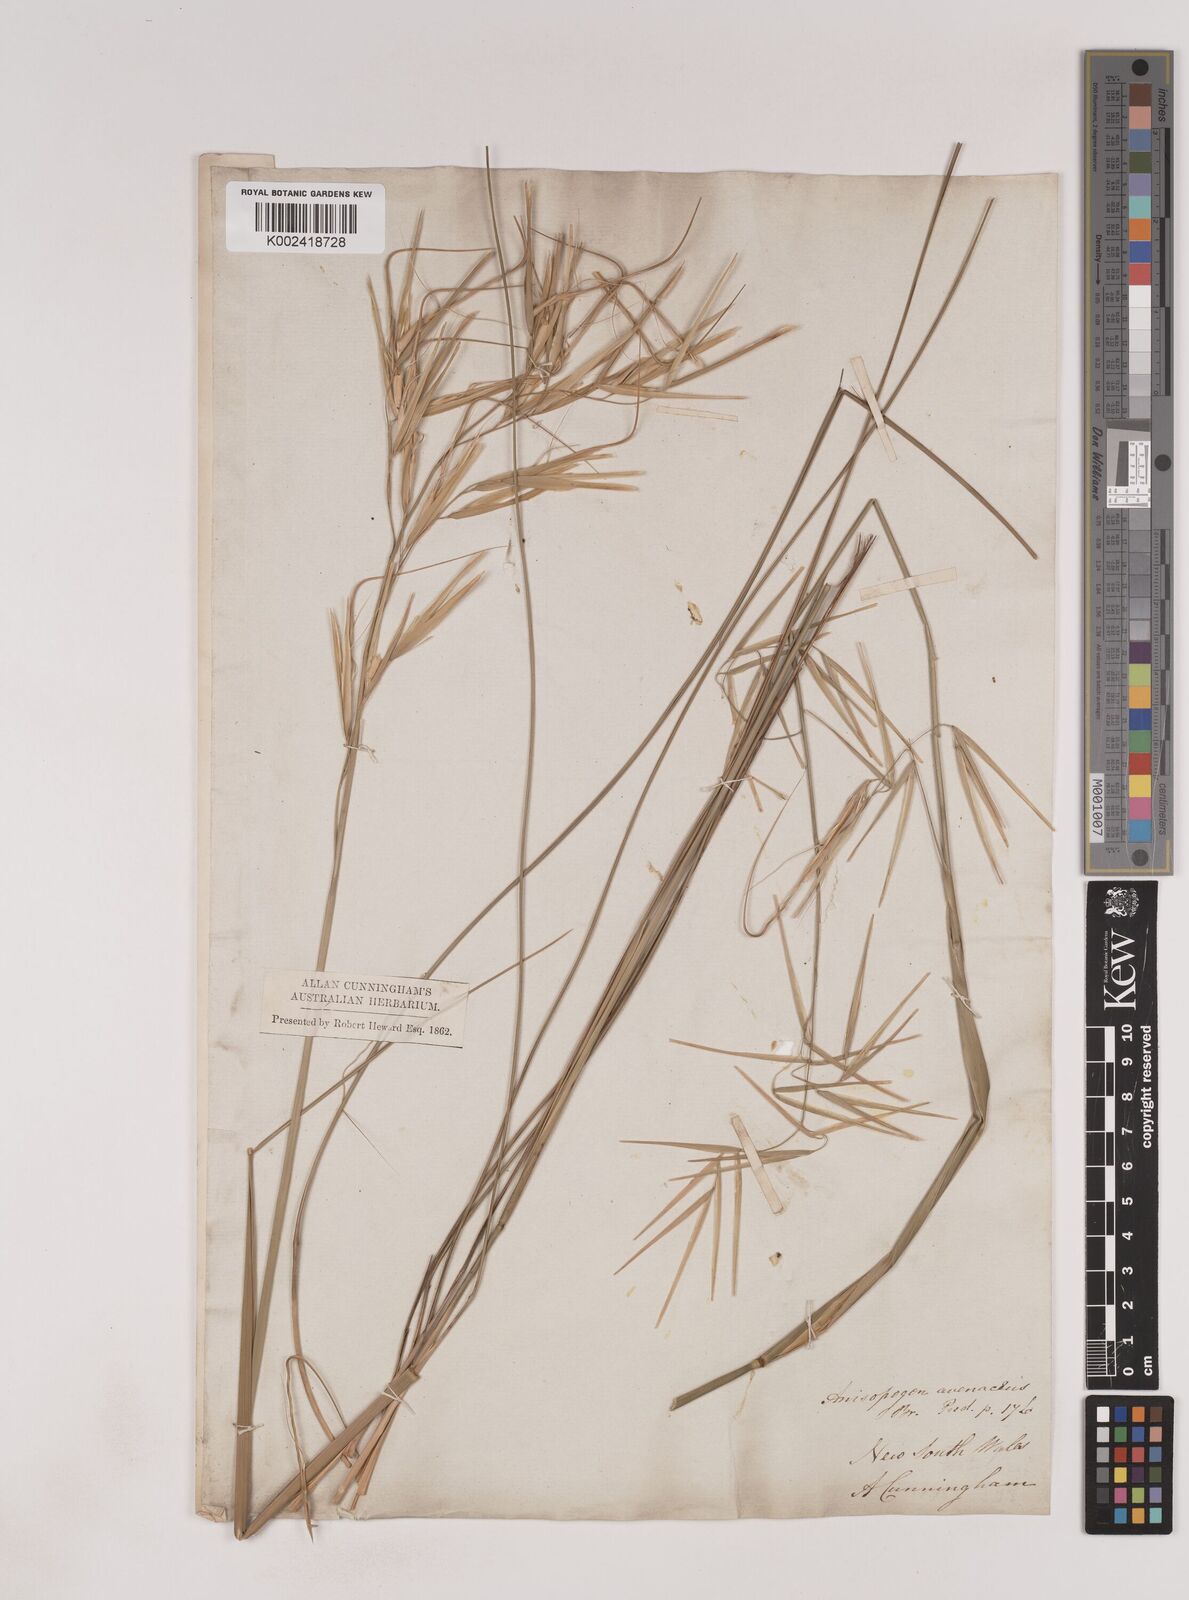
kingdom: Plantae
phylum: Tracheophyta
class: Liliopsida
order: Poales
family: Poaceae
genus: Anisopogon
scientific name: Anisopogon avenaceus
